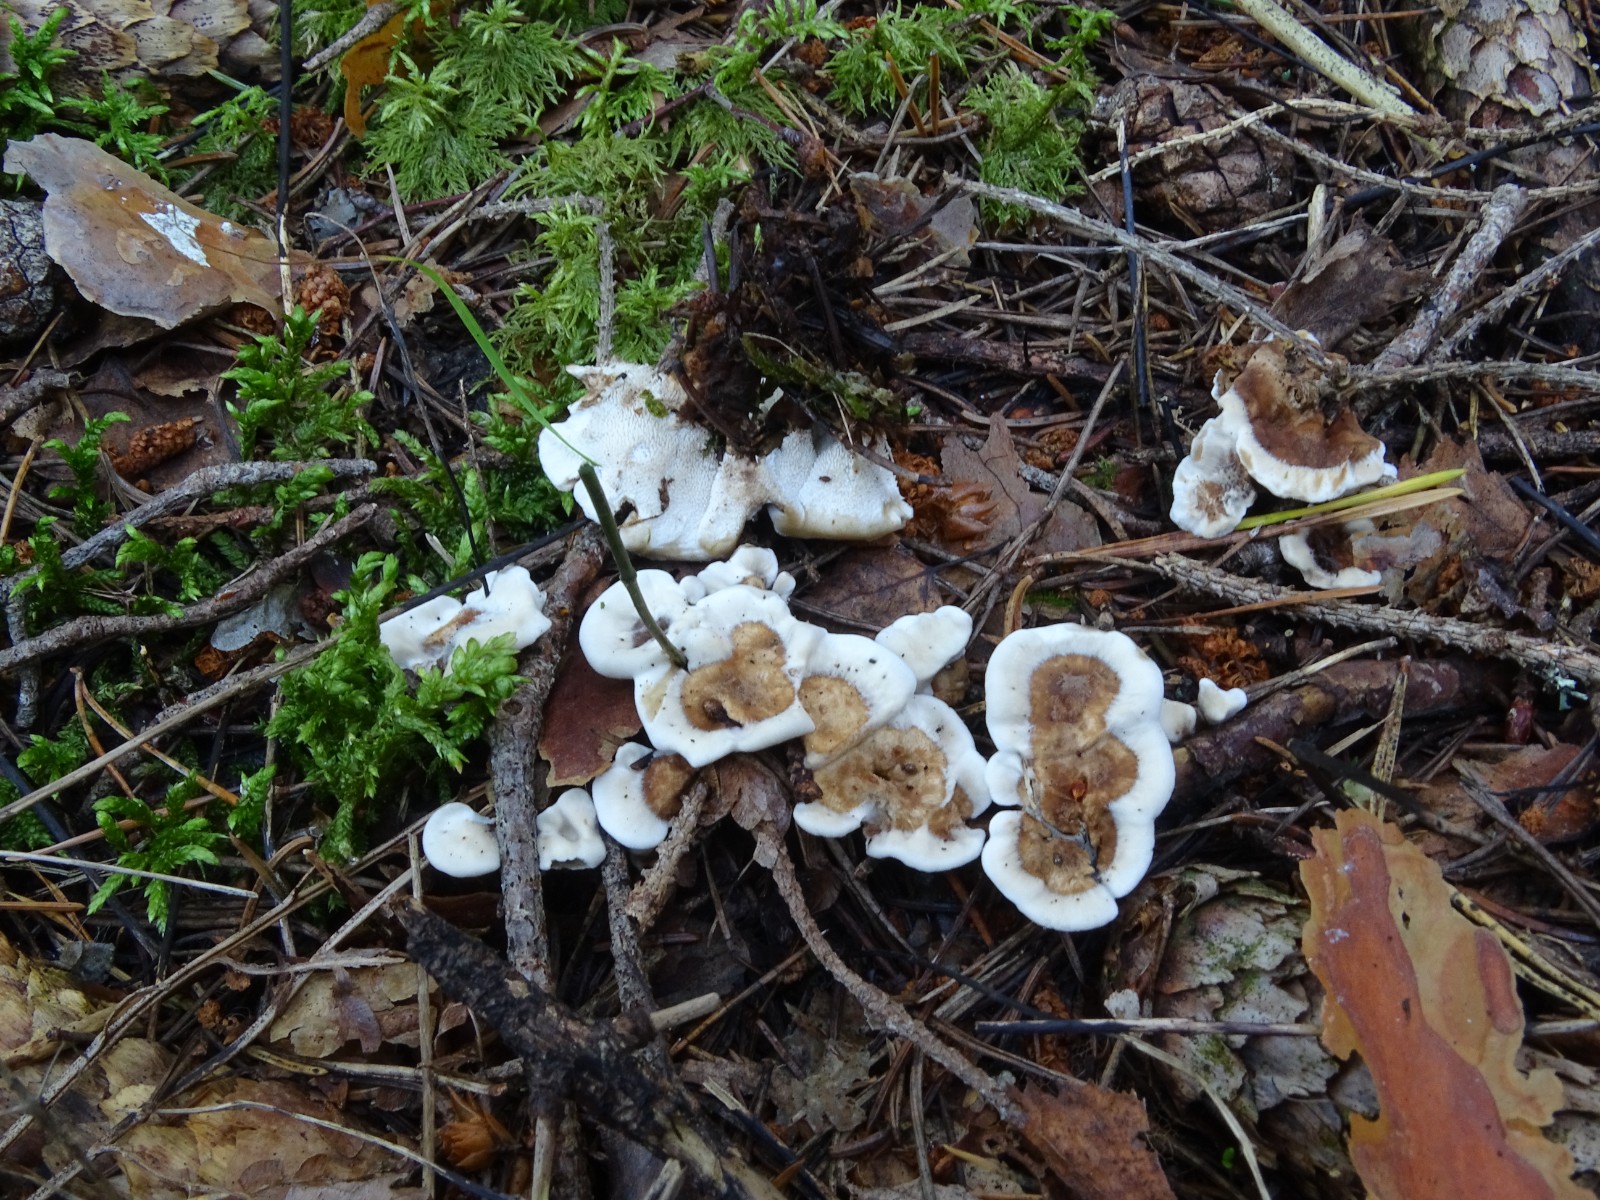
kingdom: Fungi
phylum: Basidiomycota
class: Agaricomycetes
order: Thelephorales
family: Thelephoraceae
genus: Phellodon
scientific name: Phellodon tomentosus
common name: tragtformet duftpigsvamp
